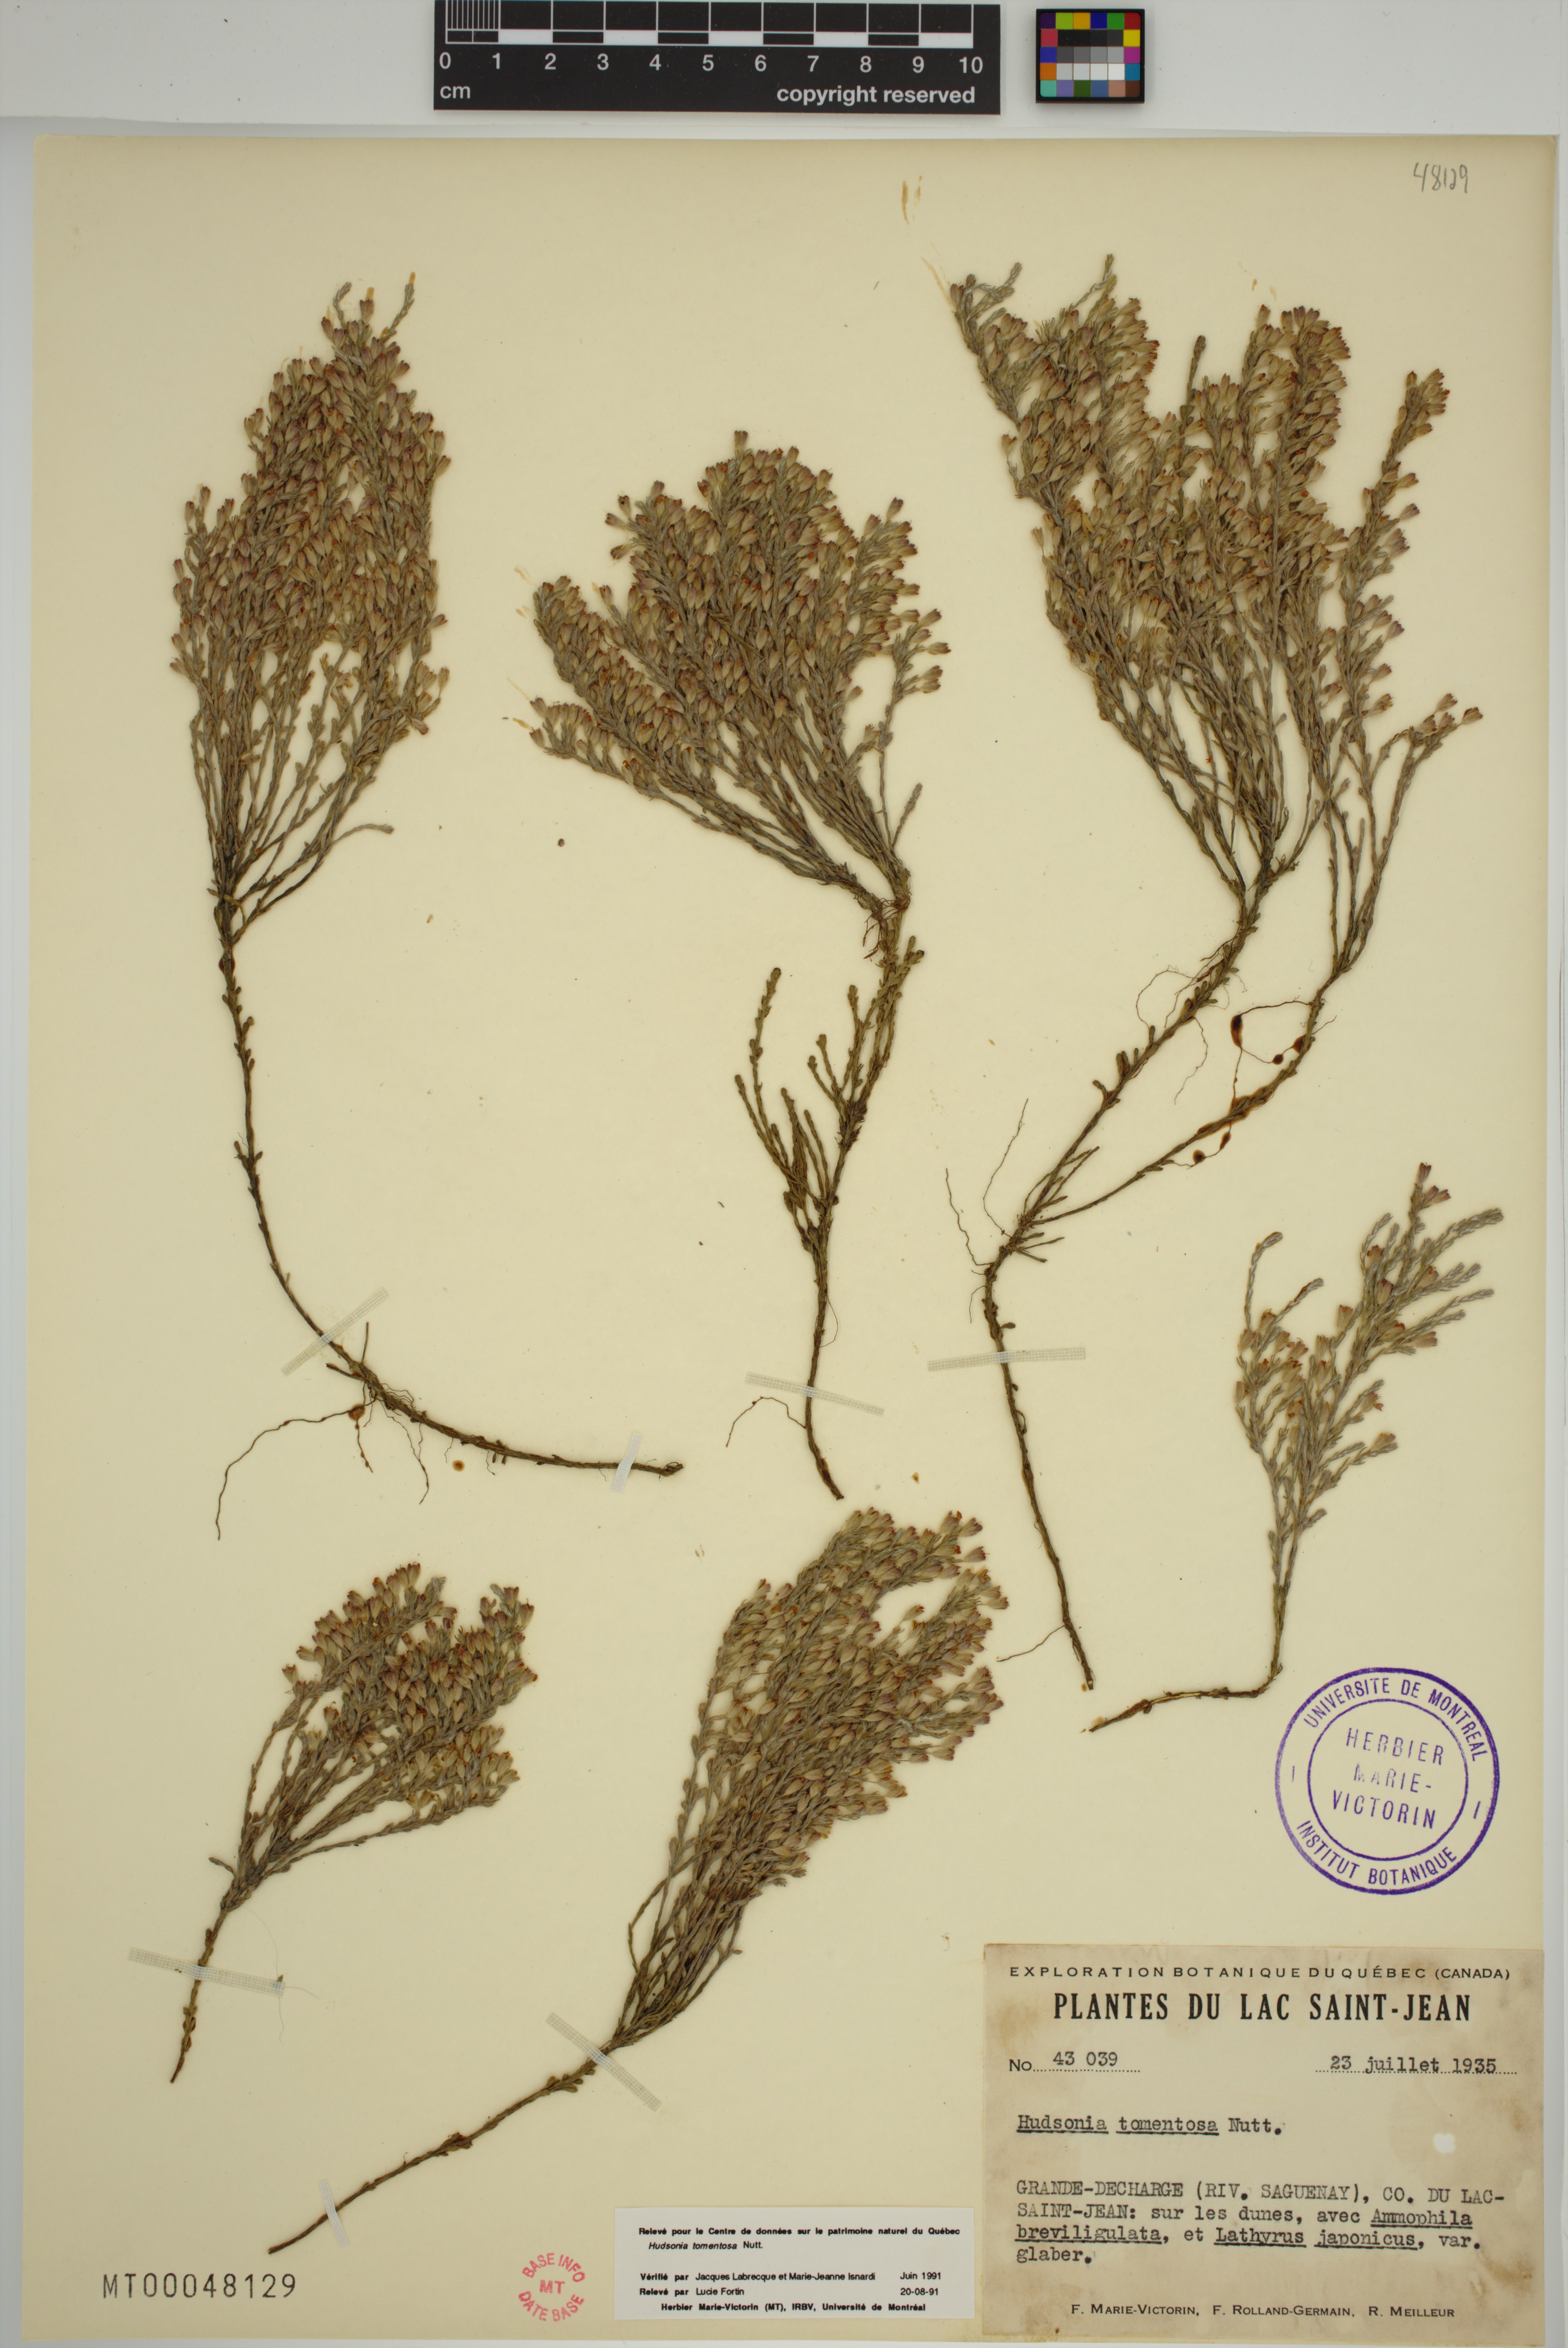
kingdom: Plantae
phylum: Tracheophyta
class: Magnoliopsida
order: Malvales
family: Cistaceae
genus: Hudsonia
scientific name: Hudsonia tomentosa
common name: Beach-heath
